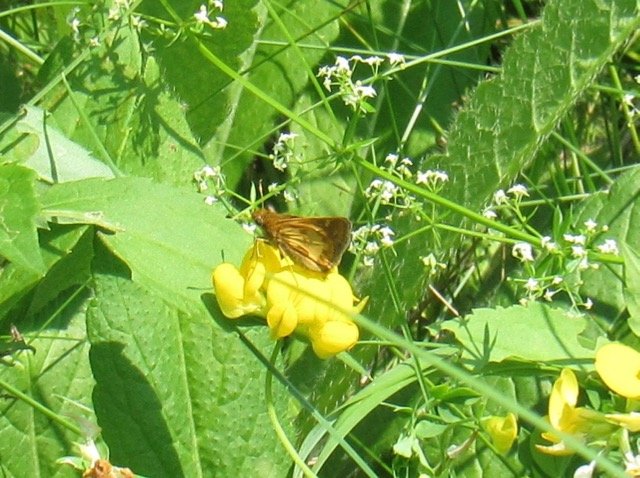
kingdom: Animalia
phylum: Arthropoda
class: Insecta
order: Lepidoptera
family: Hesperiidae
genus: Polites
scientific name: Polites coras
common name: Peck's Skipper
